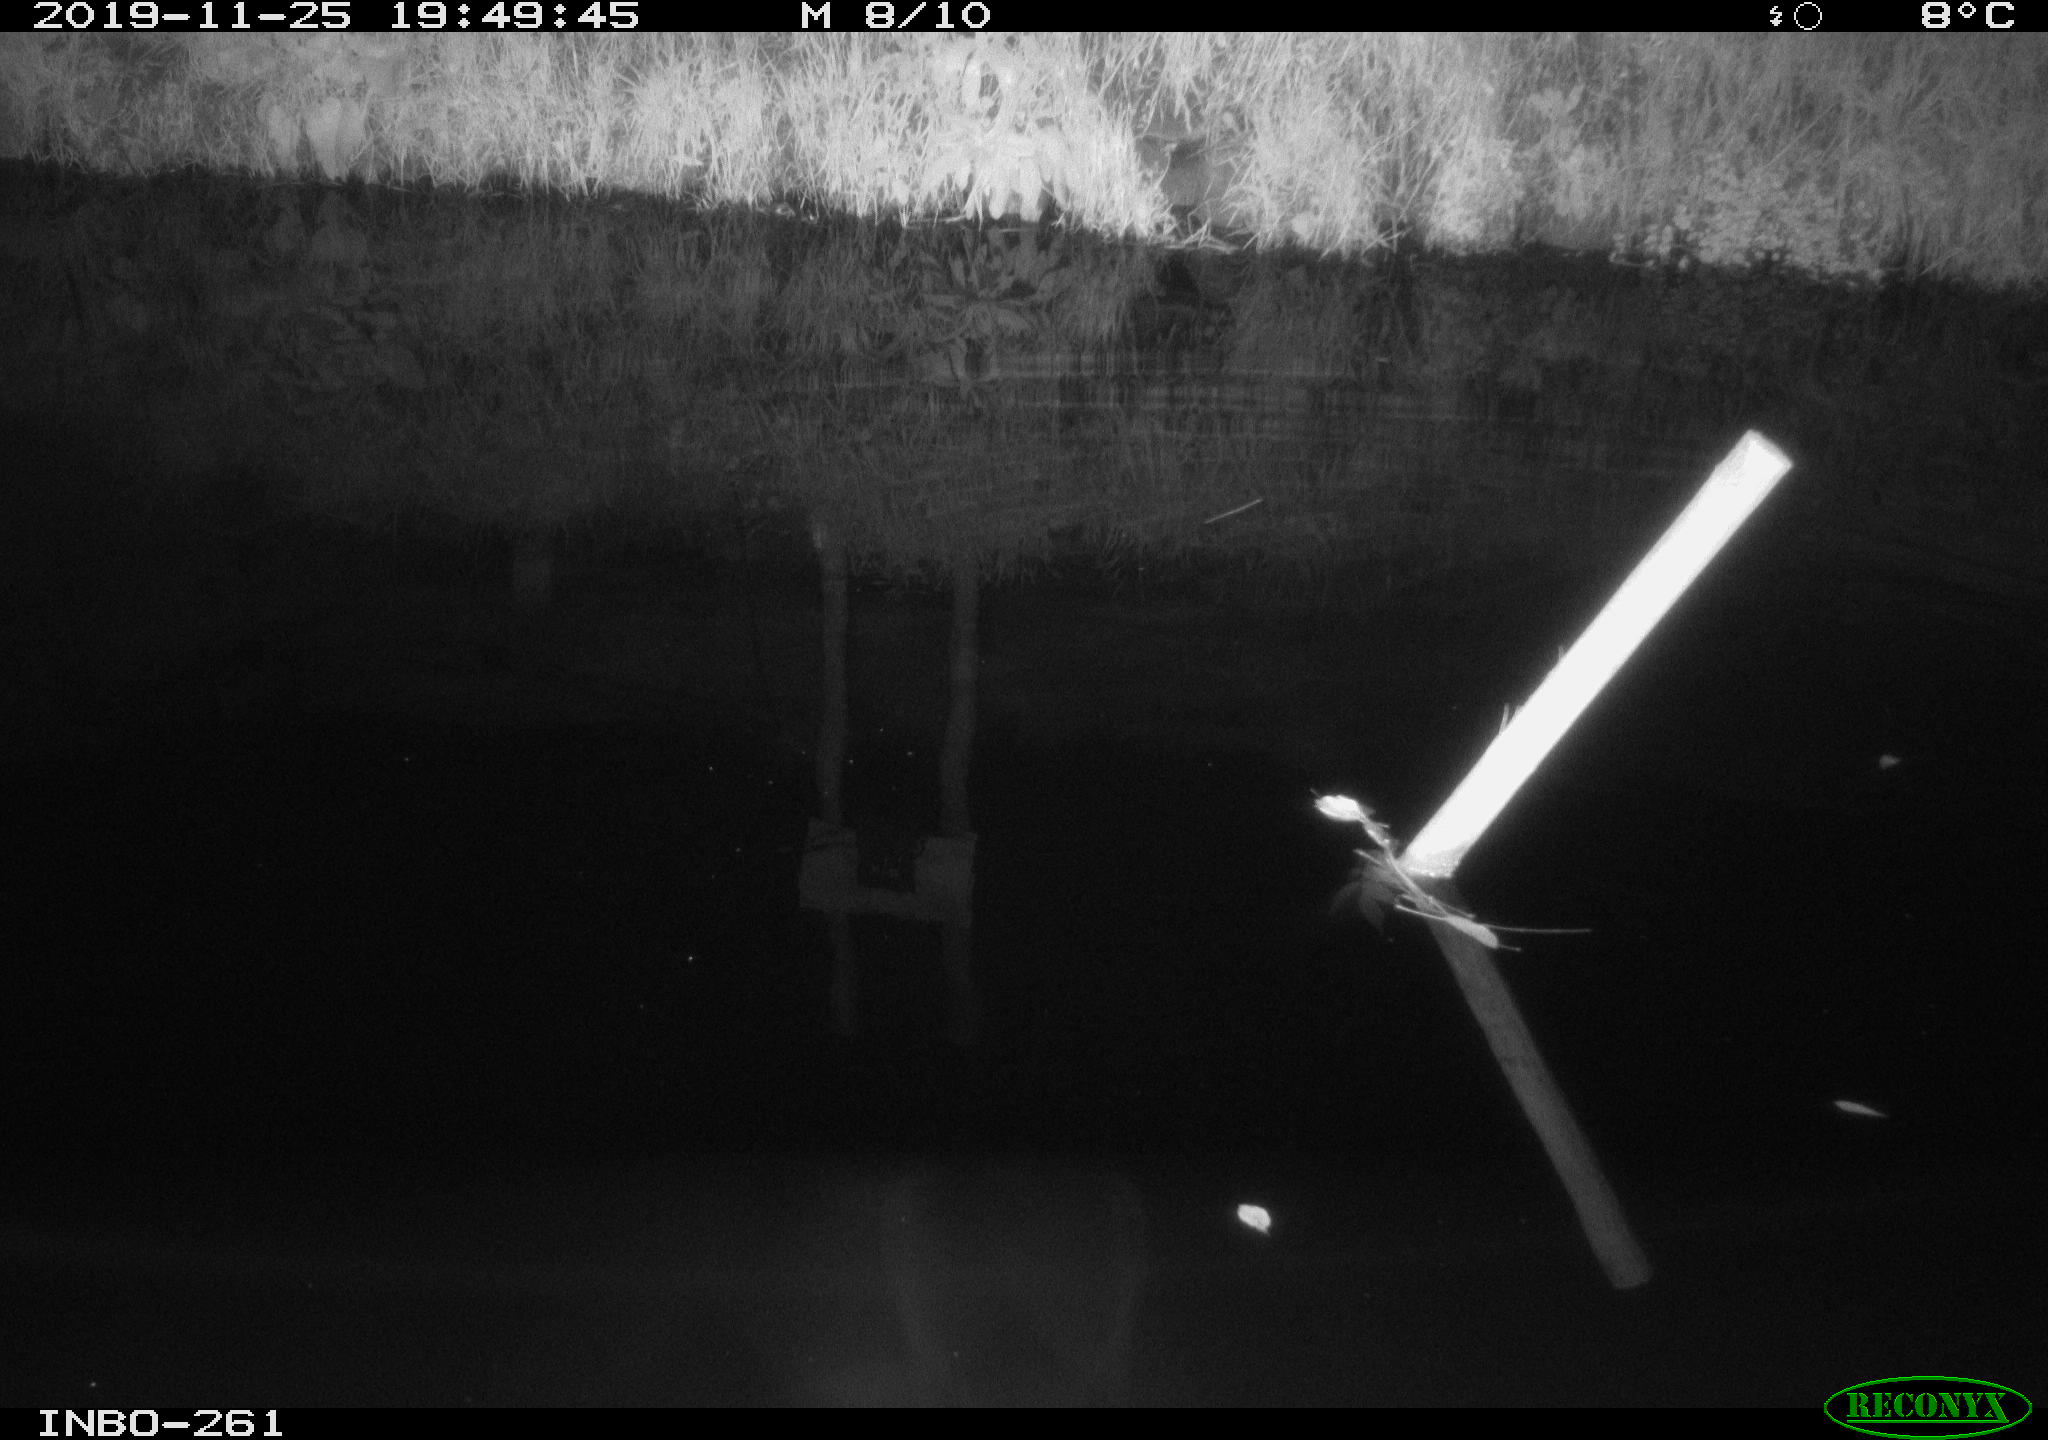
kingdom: Animalia
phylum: Chordata
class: Aves
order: Anseriformes
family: Anatidae
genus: Anas
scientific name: Anas platyrhynchos
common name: Mallard
